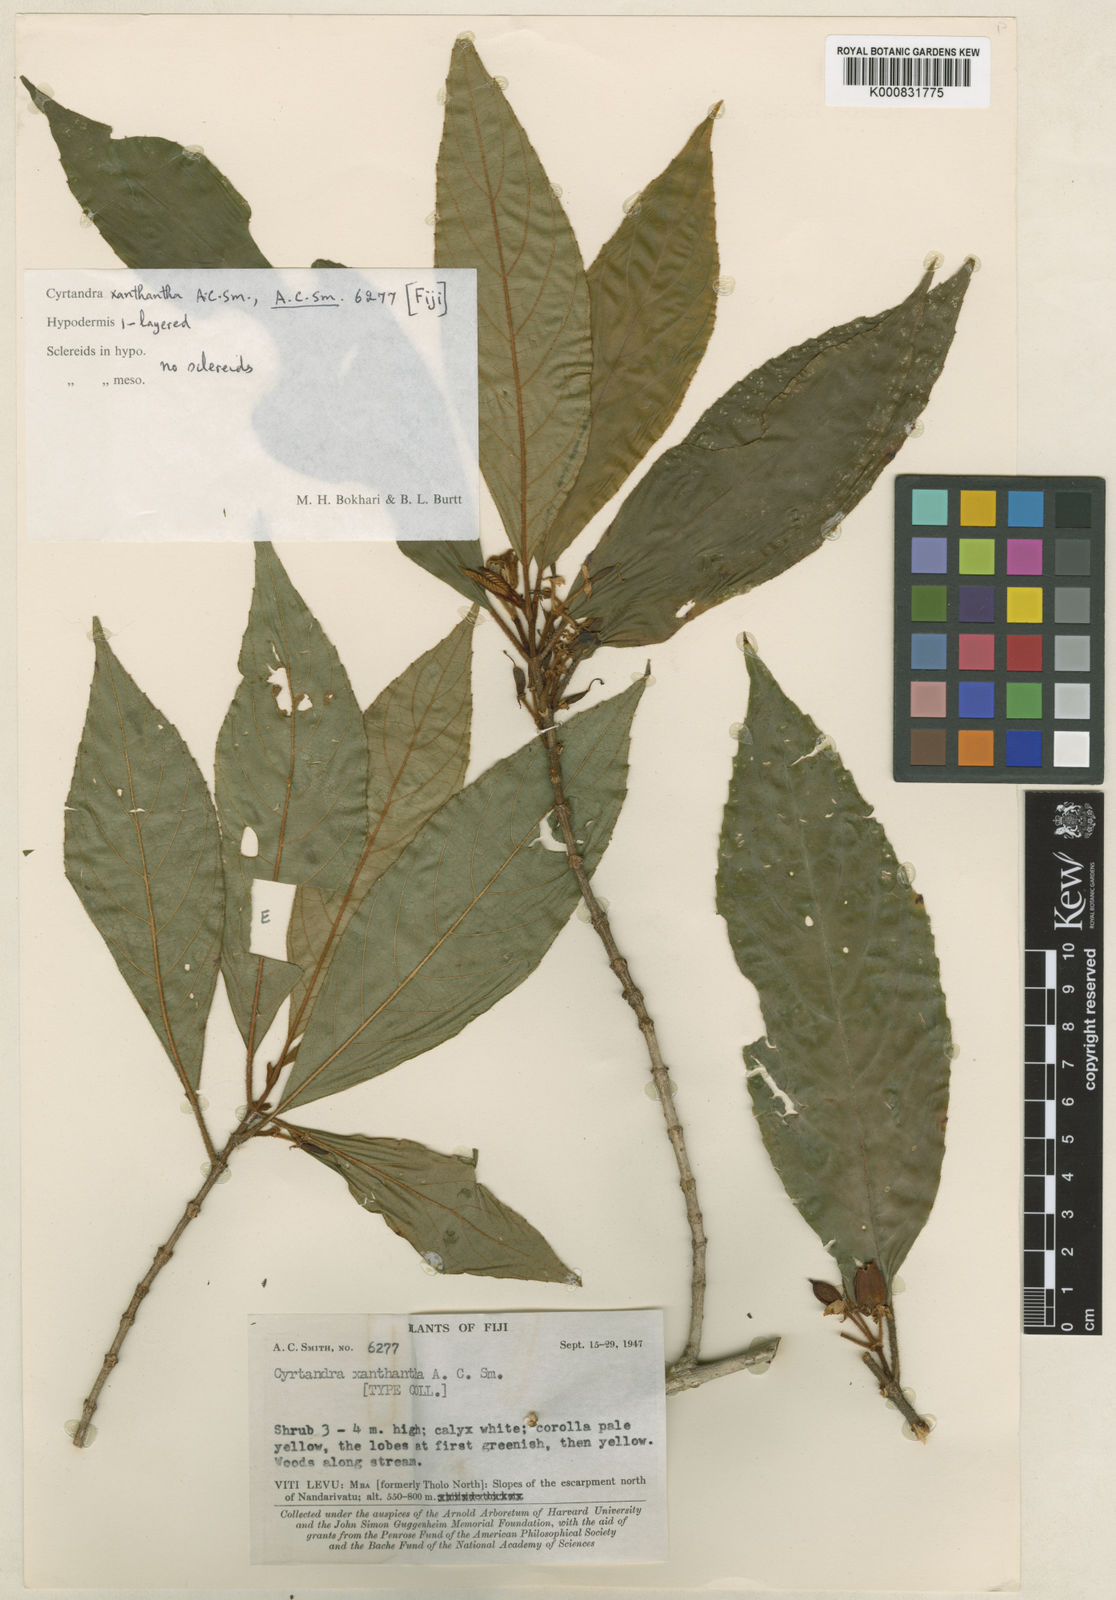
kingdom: Plantae
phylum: Tracheophyta
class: Magnoliopsida
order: Lamiales
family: Gesneriaceae
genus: Cyrtandra
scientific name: Cyrtandra xanthantha
